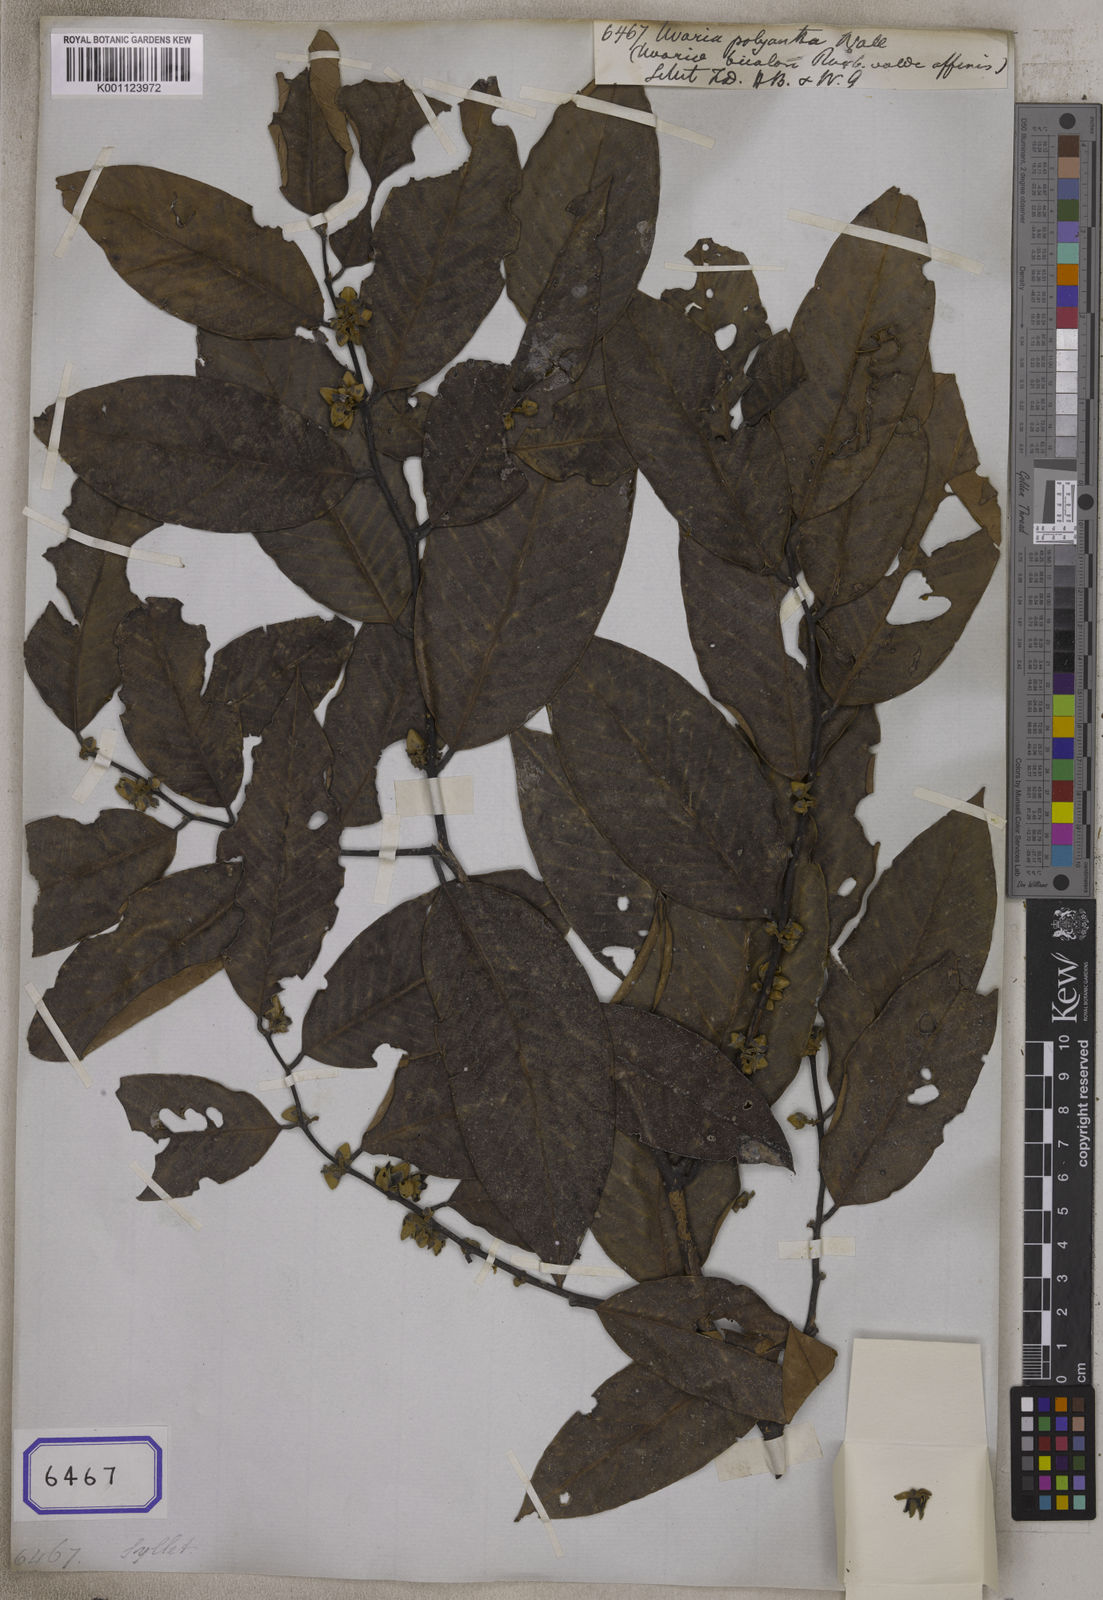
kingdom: Plantae
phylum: Tracheophyta
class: Magnoliopsida
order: Magnoliales
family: Annonaceae
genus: Fissistigma
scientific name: Fissistigma polyanthum
